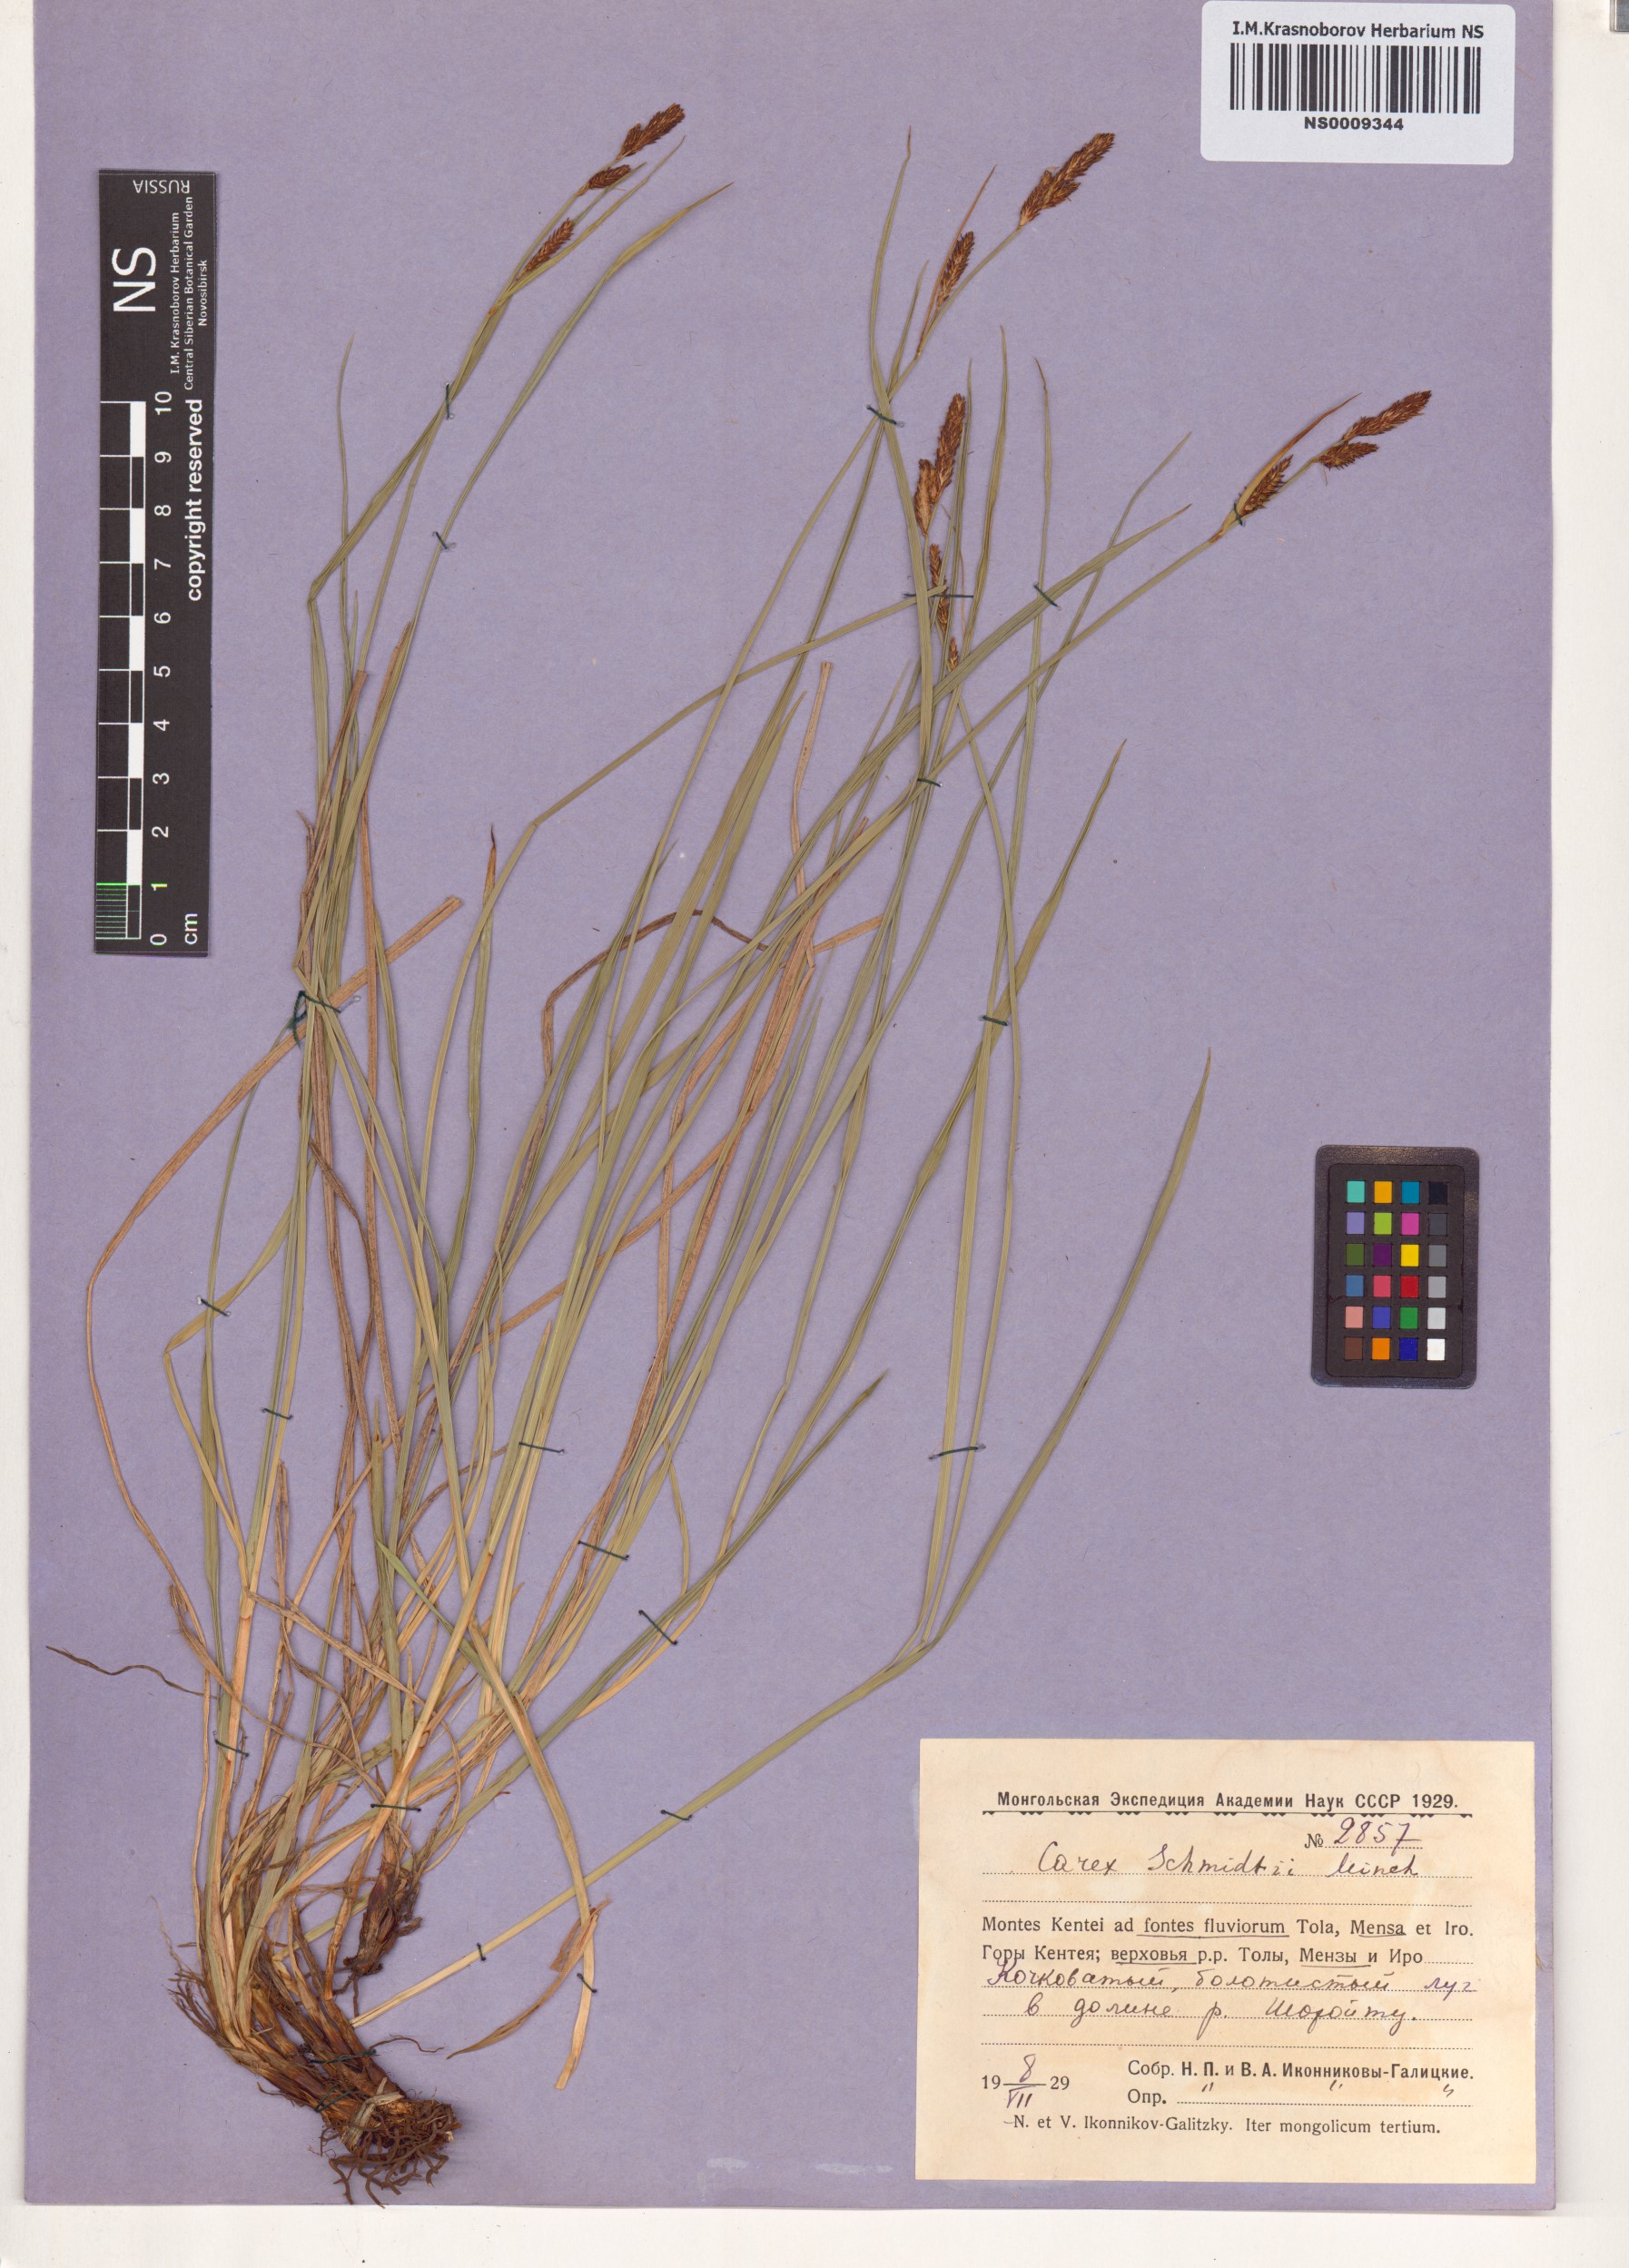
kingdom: Plantae
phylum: Tracheophyta
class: Liliopsida
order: Poales
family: Cyperaceae
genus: Carex
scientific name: Carex schmidtii
